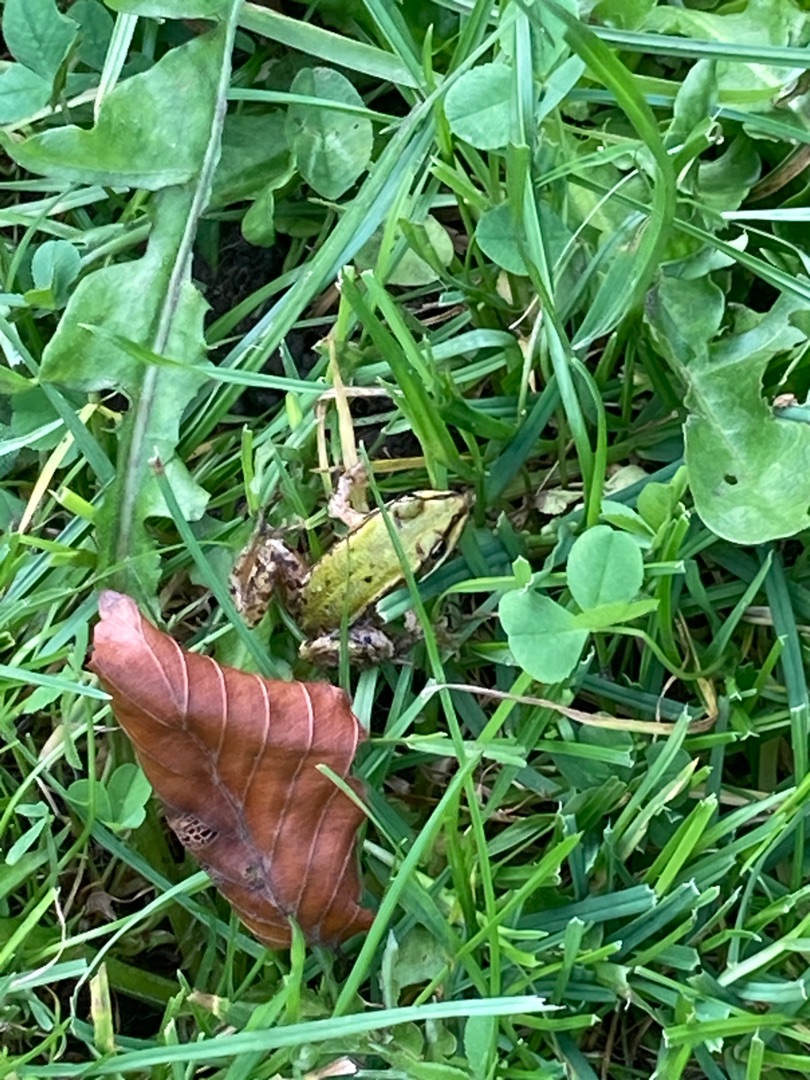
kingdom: Animalia
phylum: Chordata
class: Amphibia
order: Anura
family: Ranidae
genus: Pelophylax
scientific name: Pelophylax lessonae
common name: Grøn frø
